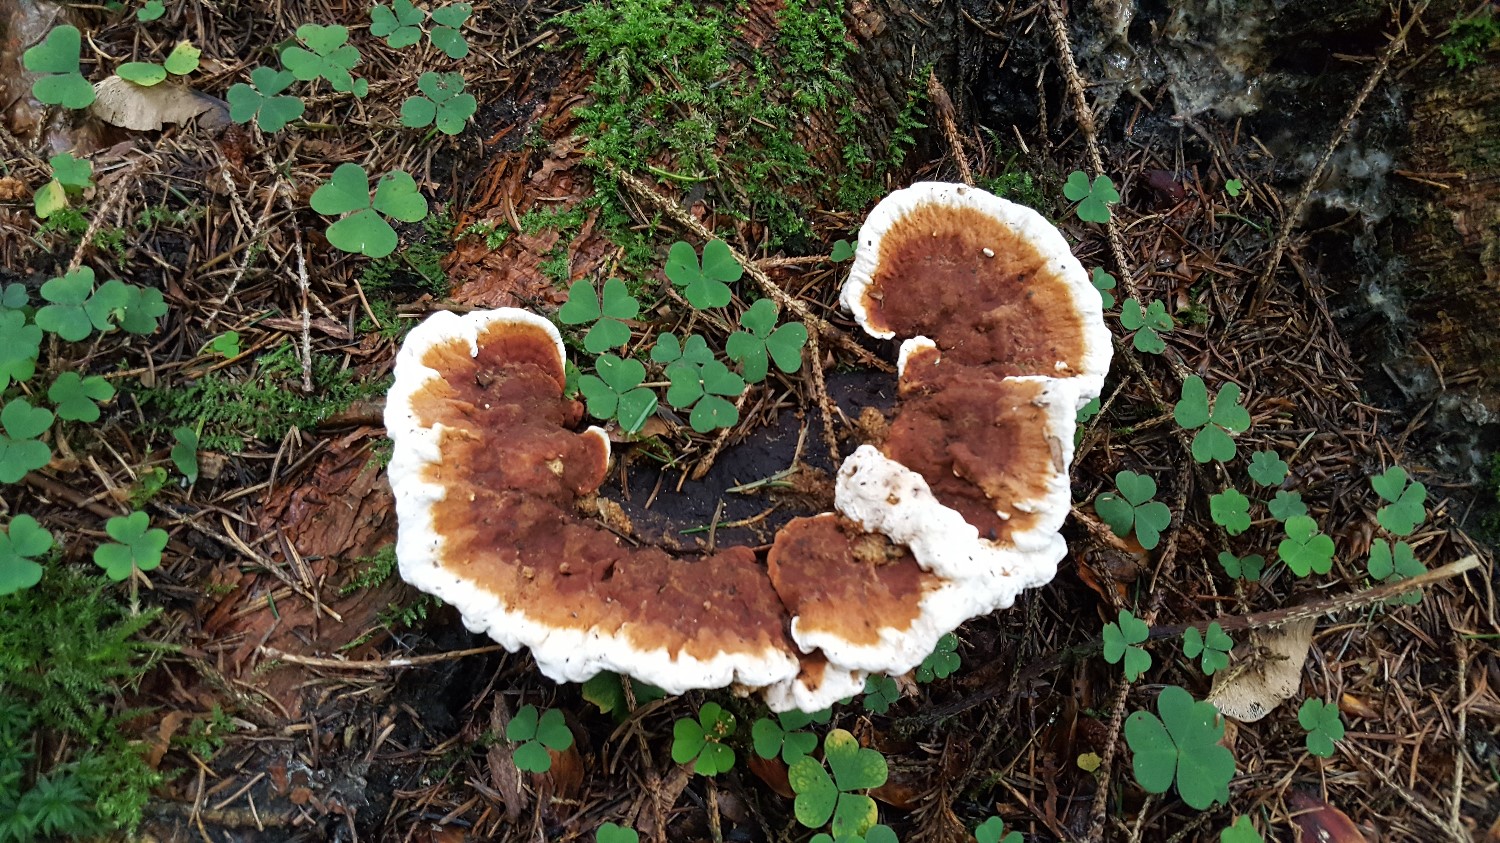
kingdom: Fungi
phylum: Basidiomycota
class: Agaricomycetes
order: Russulales
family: Bondarzewiaceae
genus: Heterobasidion
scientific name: Heterobasidion
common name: rodfordærver
